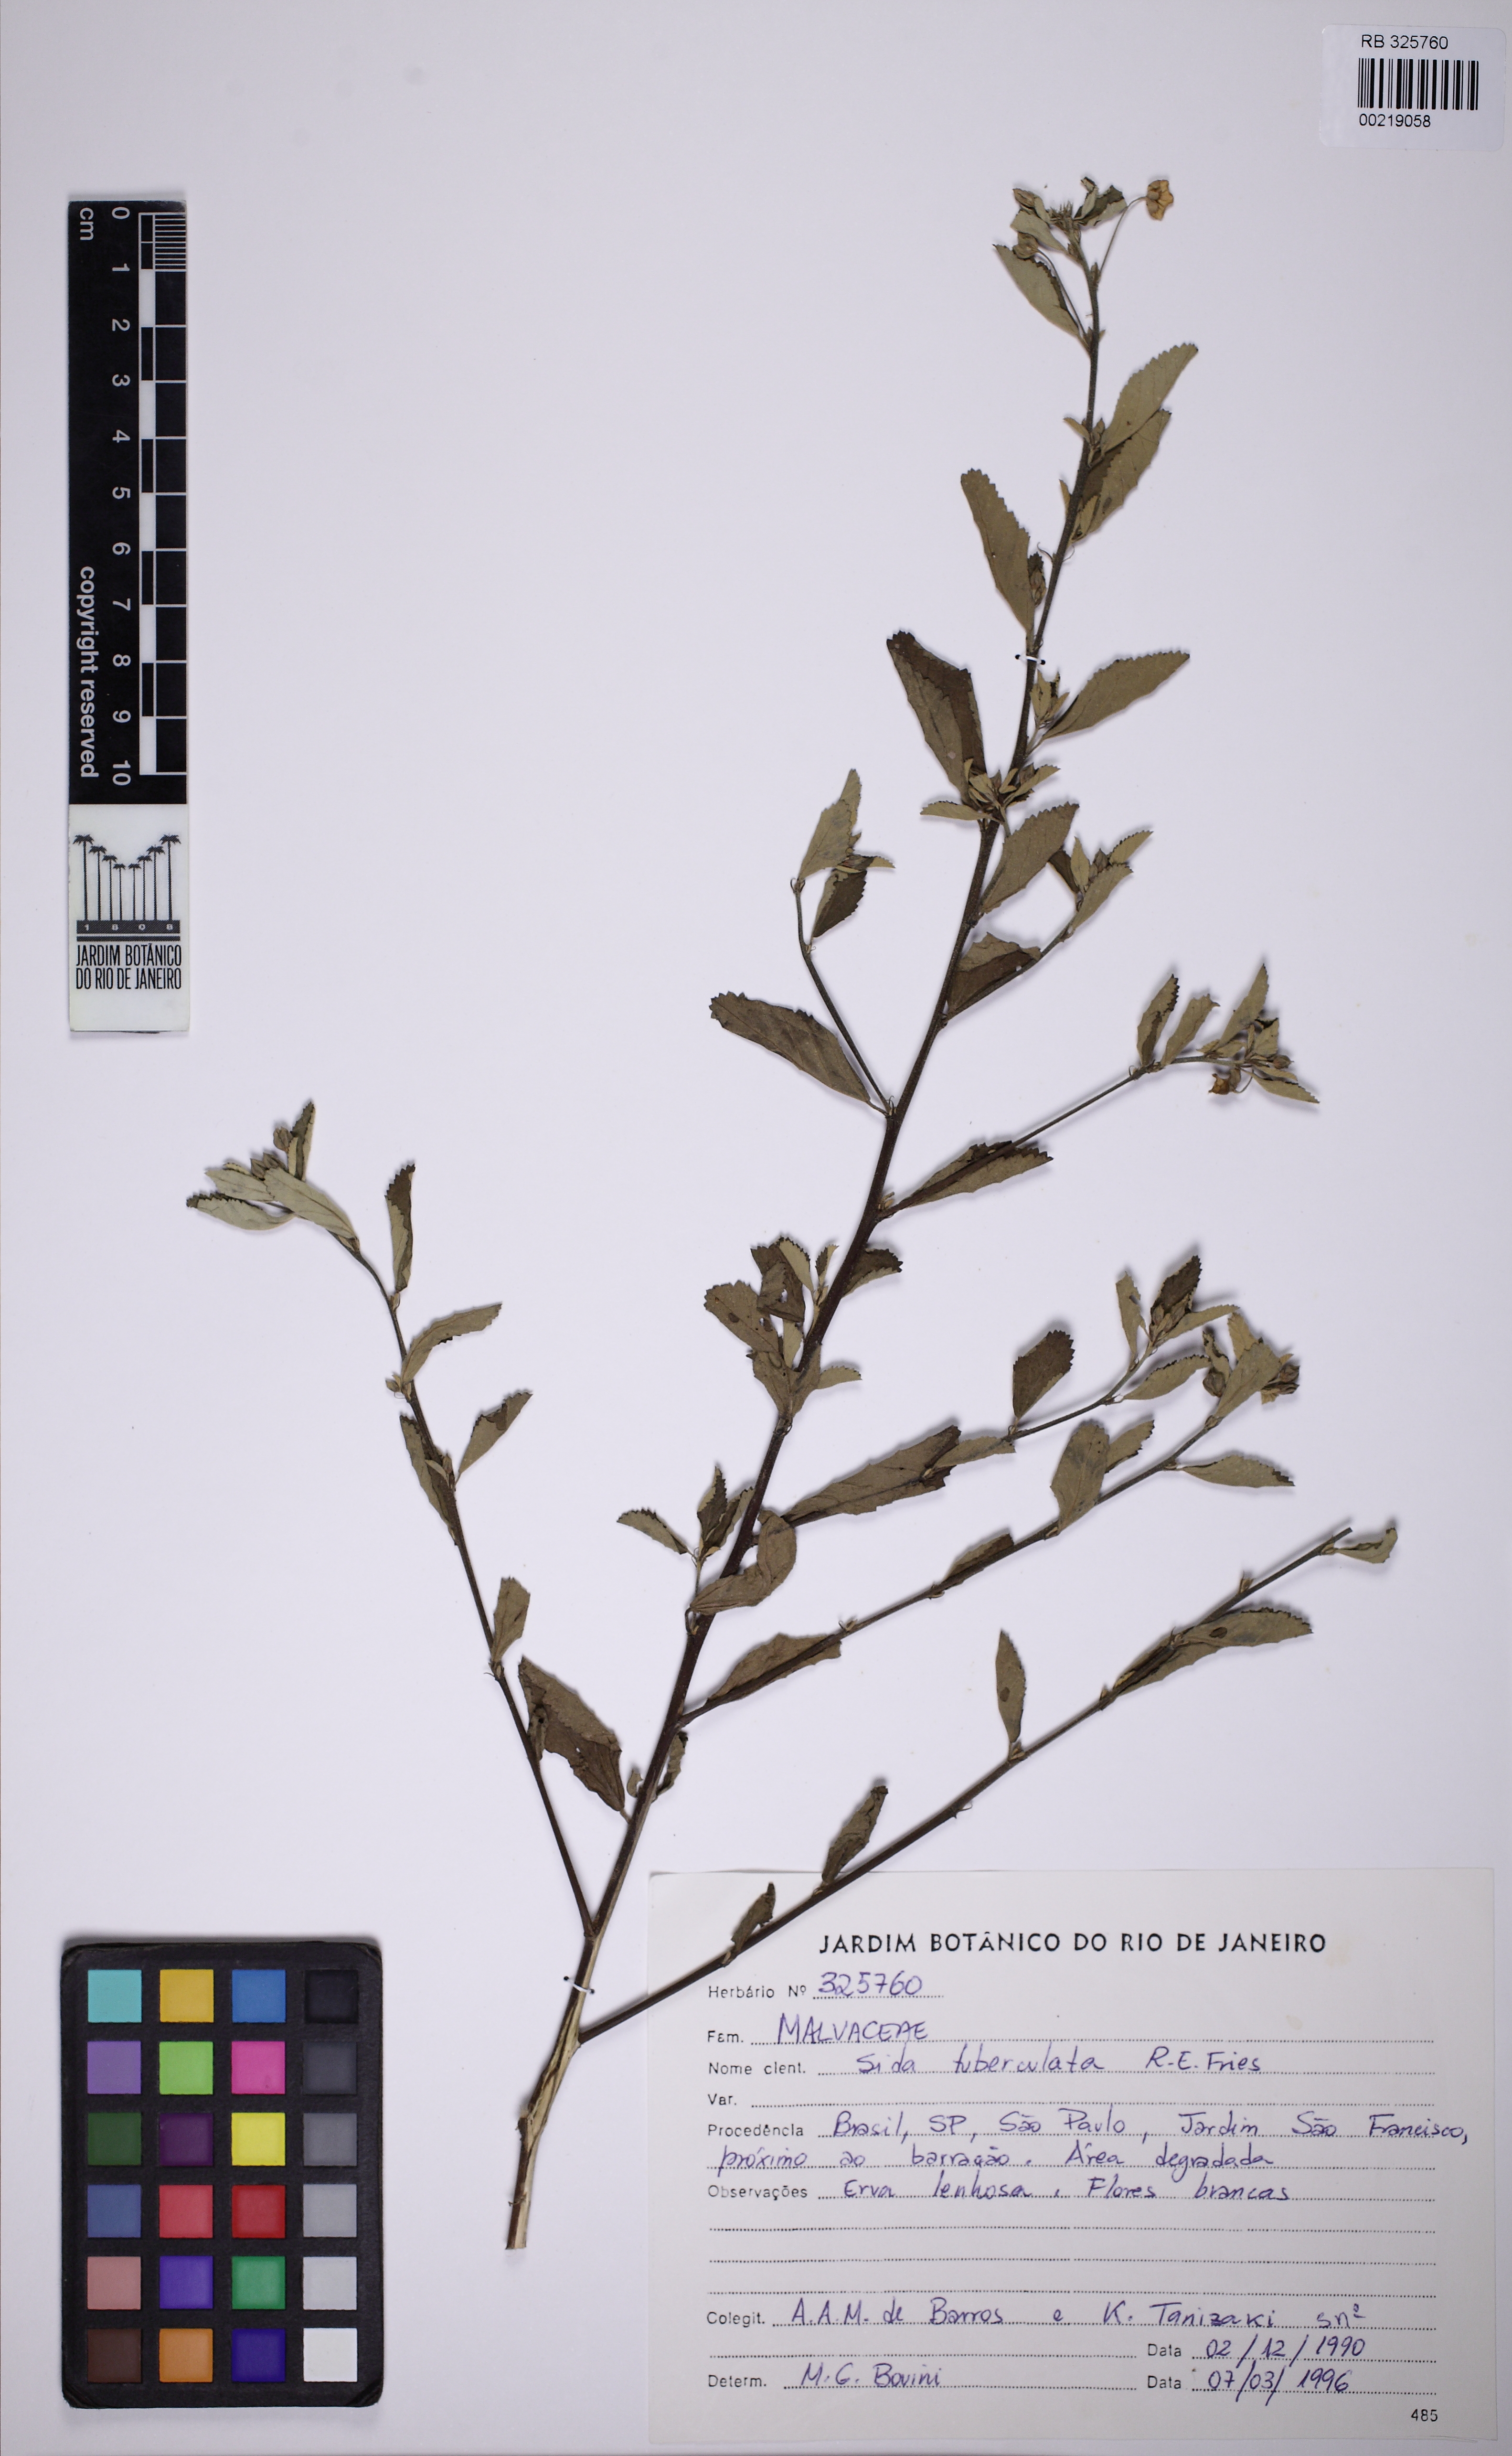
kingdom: Plantae
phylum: Tracheophyta
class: Magnoliopsida
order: Malvales
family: Malvaceae
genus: Sida
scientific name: Sida tuberculata
